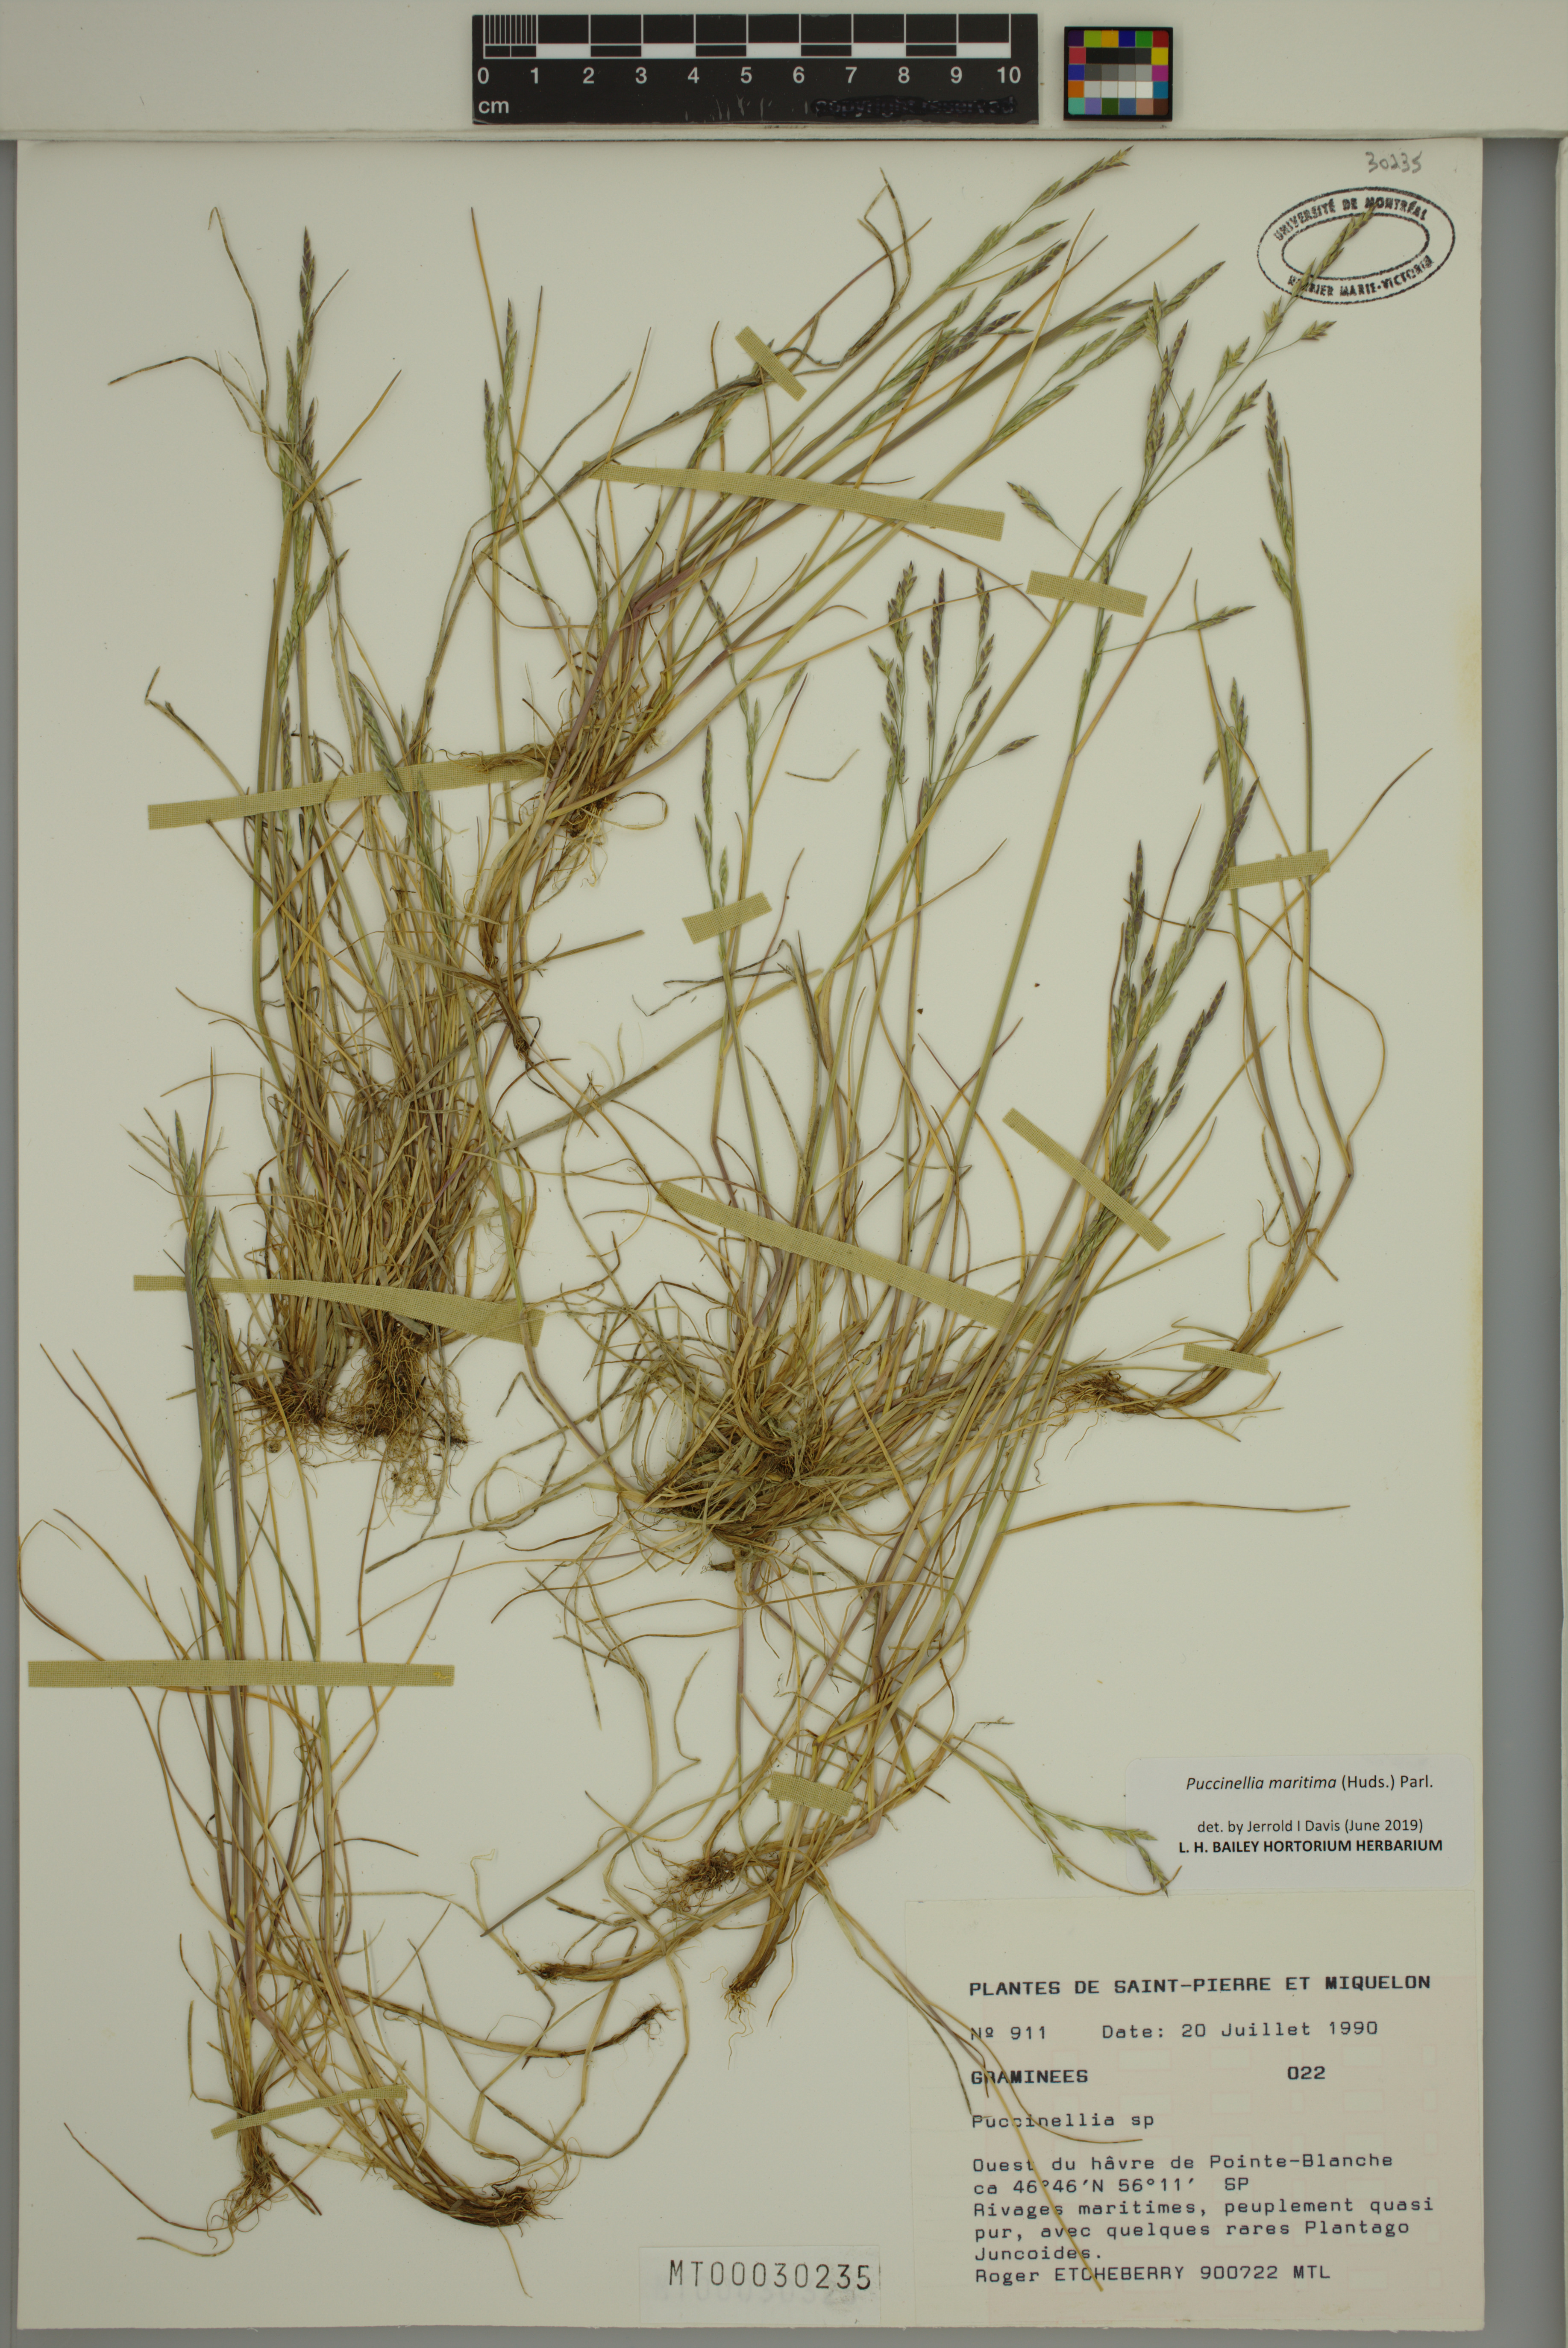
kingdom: Plantae
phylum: Tracheophyta
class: Liliopsida
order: Poales
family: Poaceae
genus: Puccinellia
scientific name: Puccinellia maritima
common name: Common saltmarsh grass
